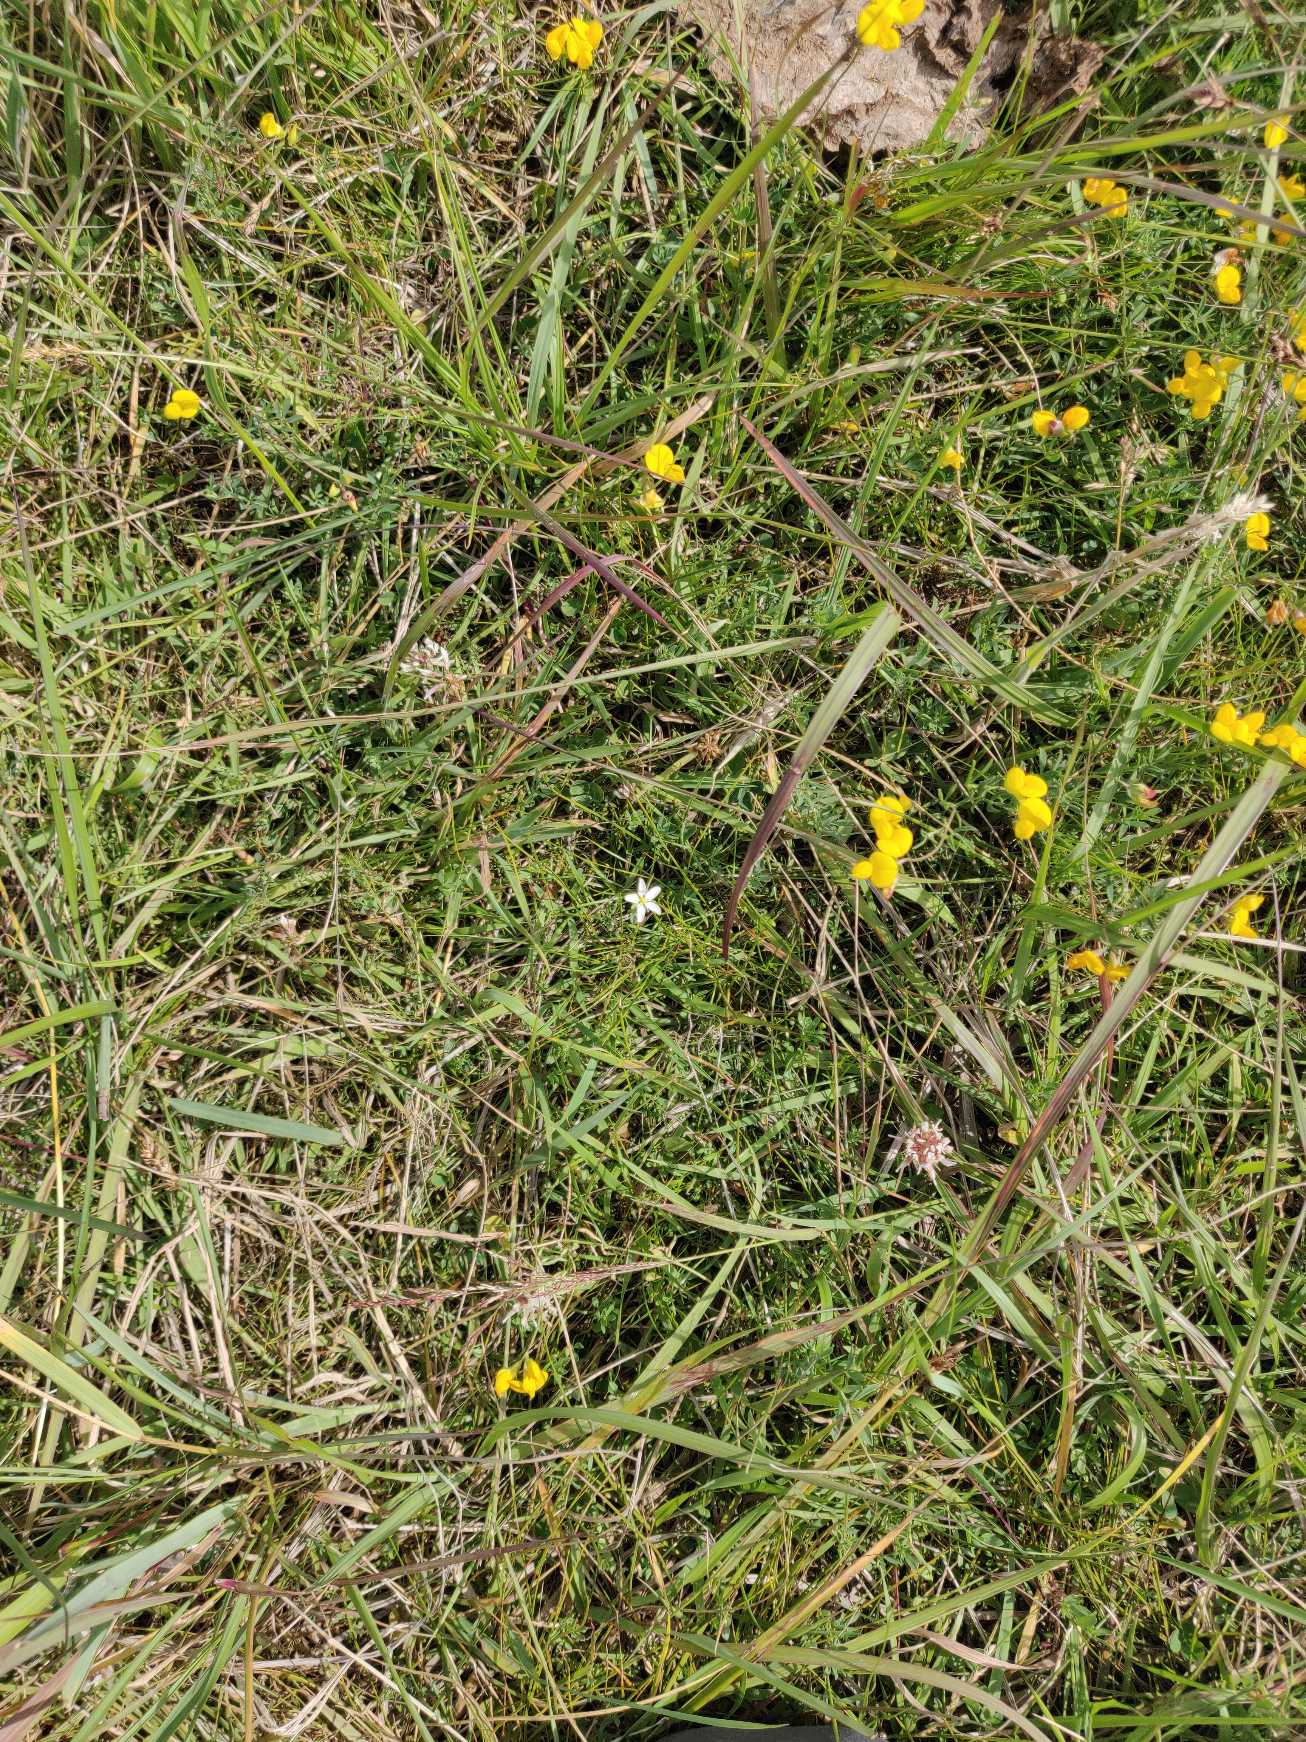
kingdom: Plantae
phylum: Tracheophyta
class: Magnoliopsida
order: Caryophyllales
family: Caryophyllaceae
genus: Sagina
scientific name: Sagina nodosa
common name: Knude-firling
